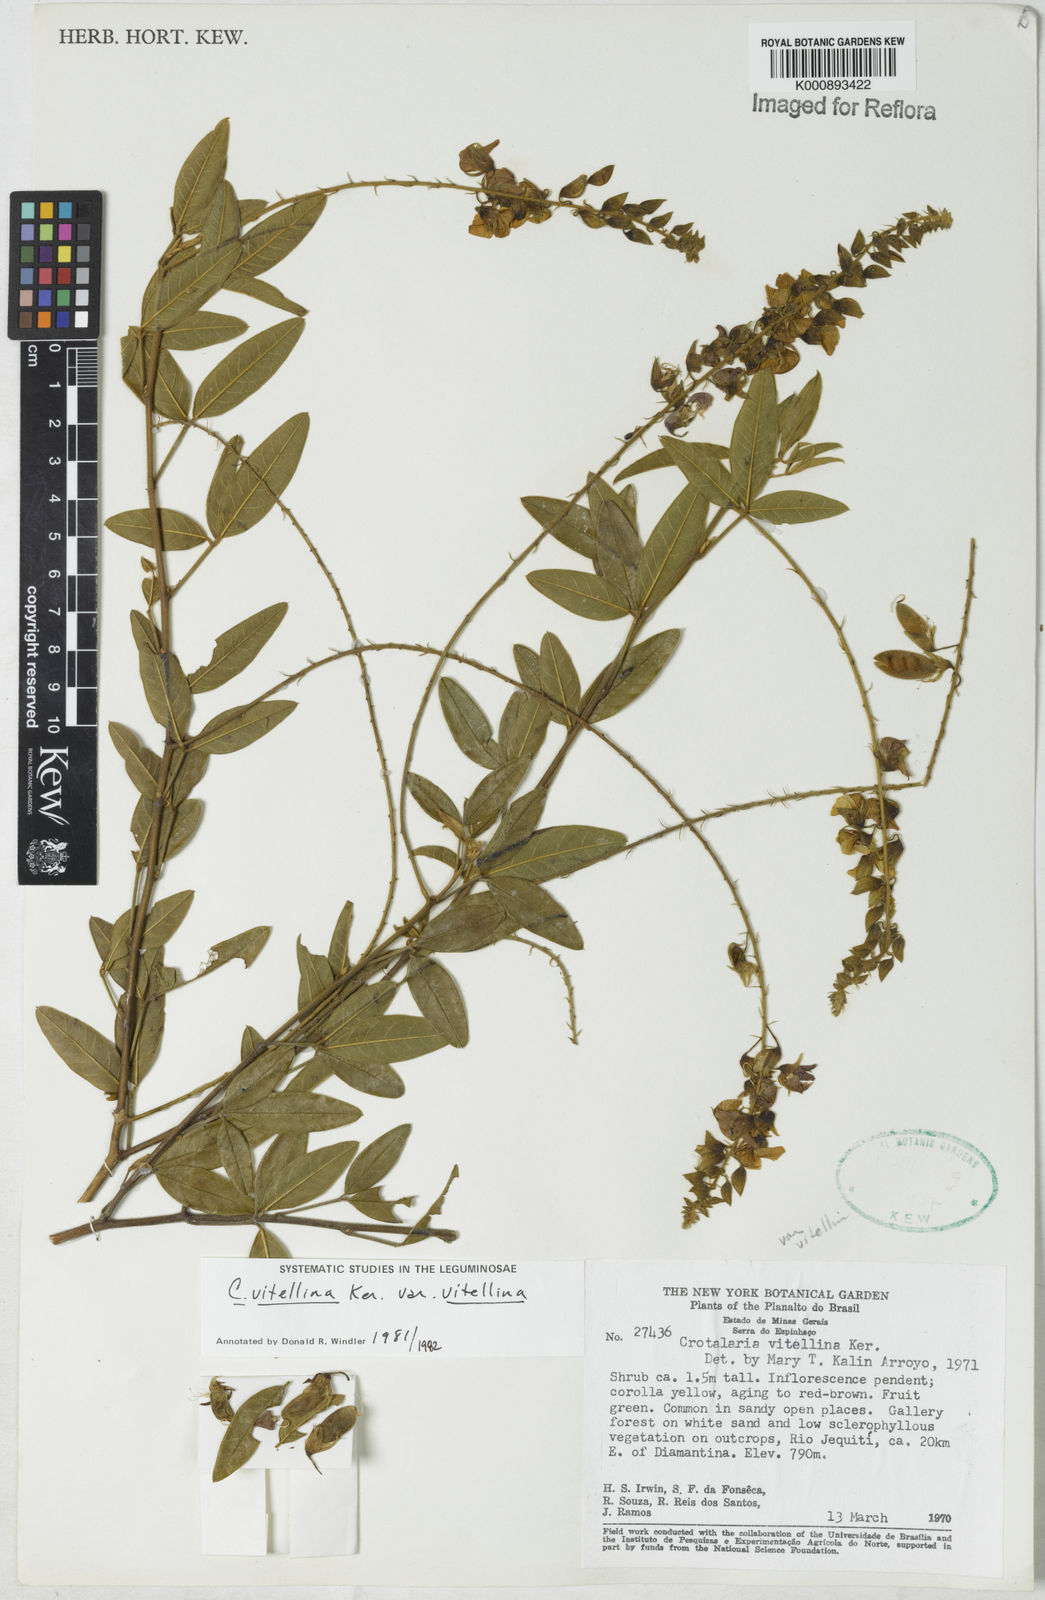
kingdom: Plantae
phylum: Tracheophyta
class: Magnoliopsida
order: Fabales
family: Fabaceae
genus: Crotalaria
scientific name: Crotalaria vitellina
